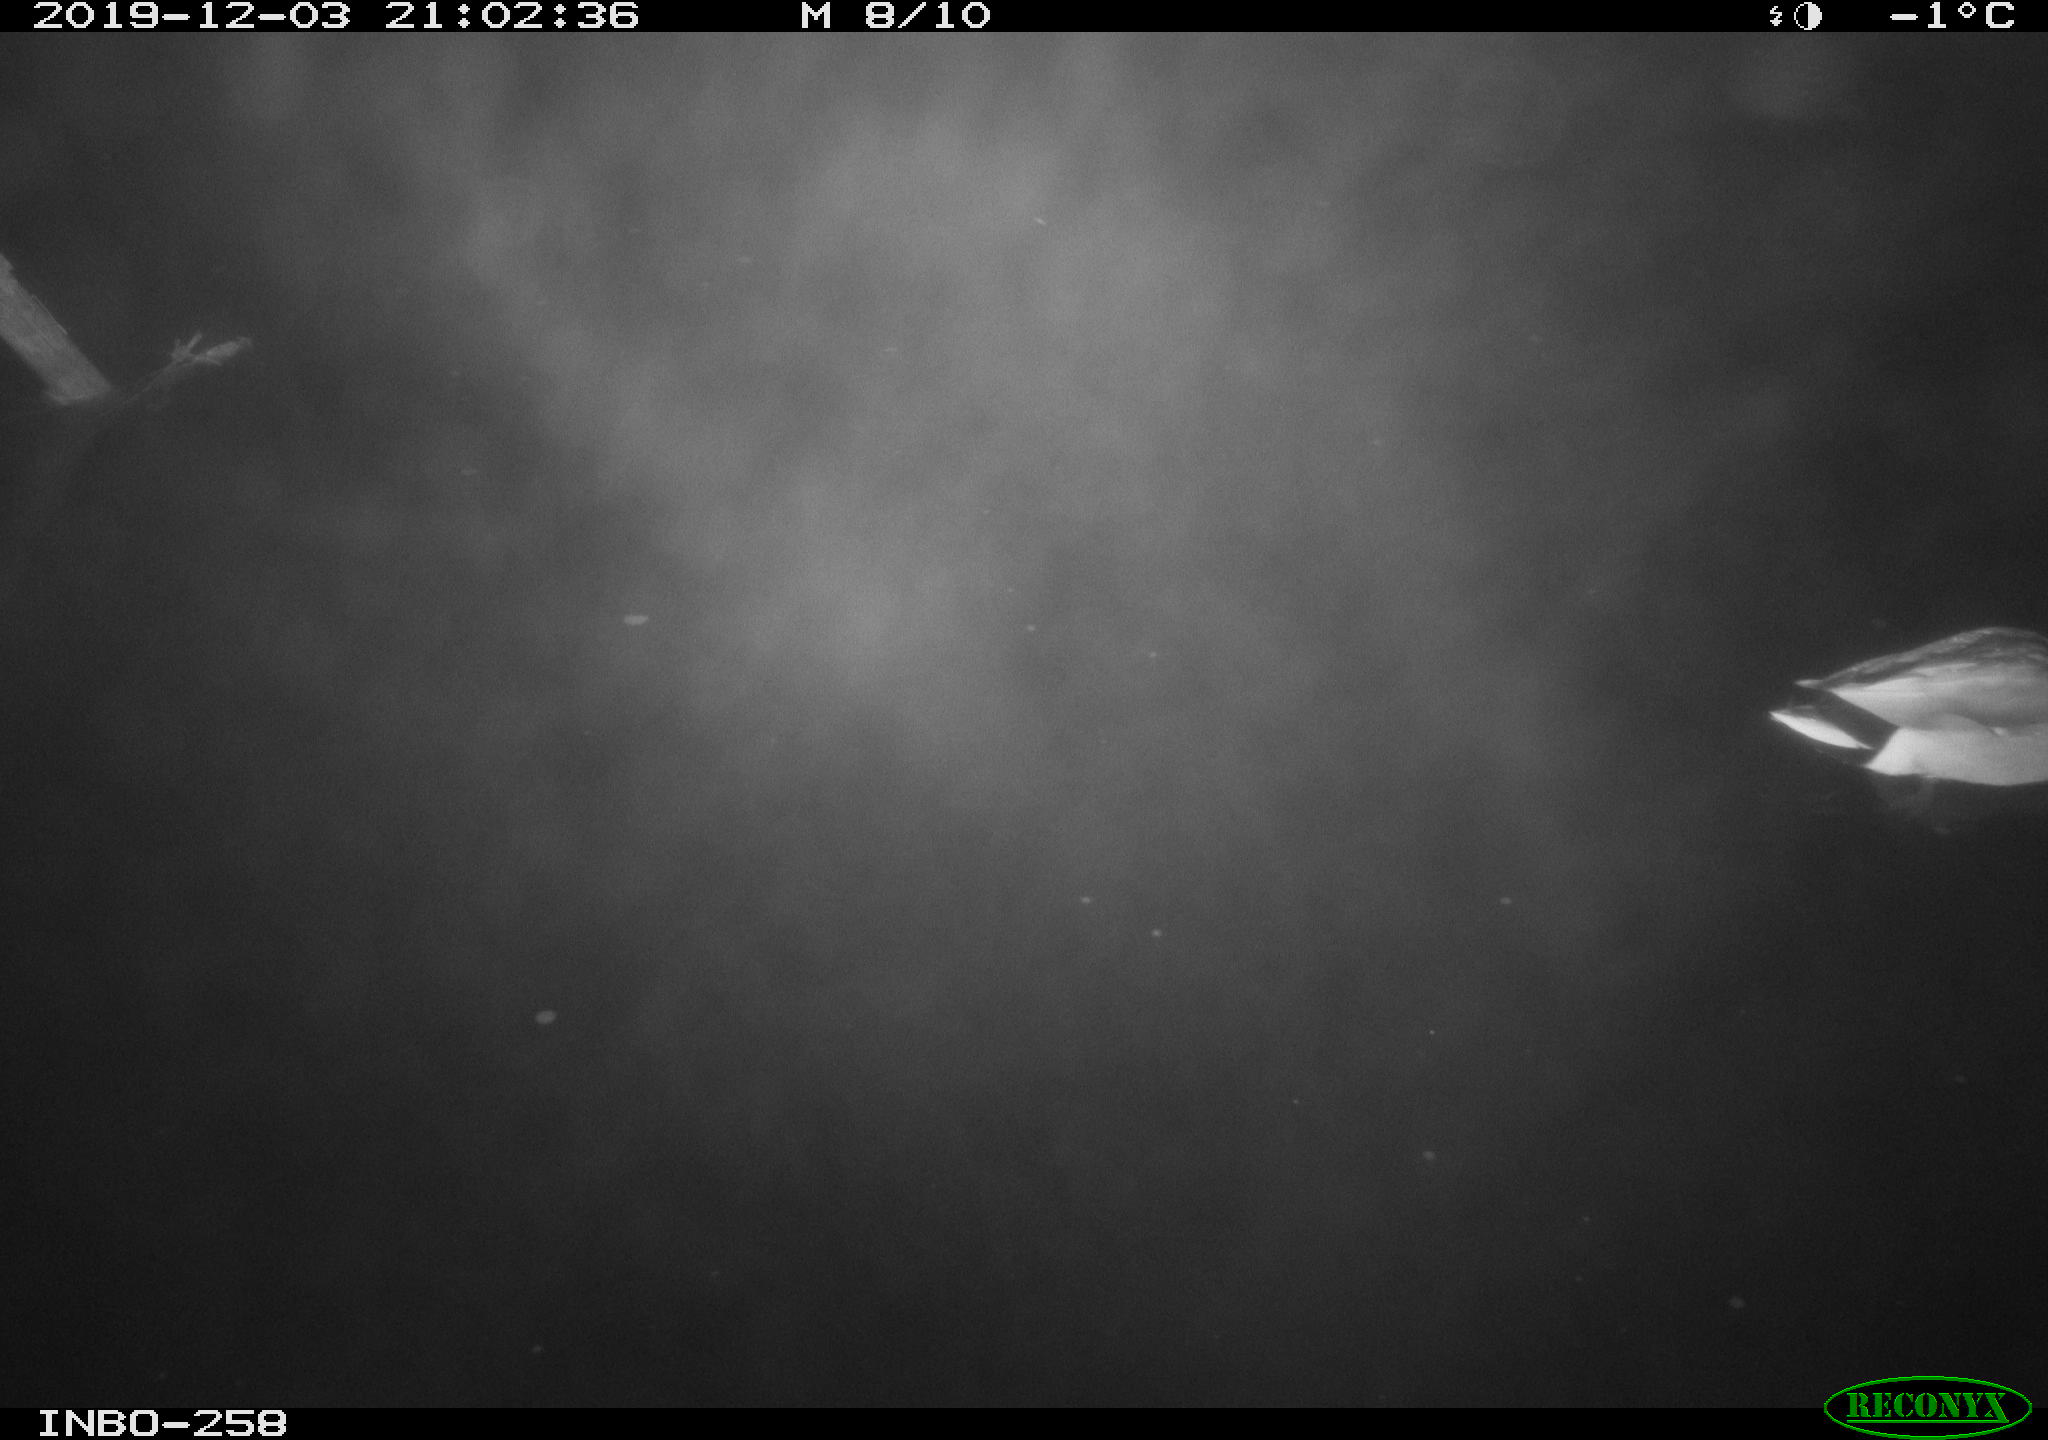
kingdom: Animalia
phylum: Chordata
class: Aves
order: Anseriformes
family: Anatidae
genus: Anas
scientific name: Anas platyrhynchos
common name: Mallard
